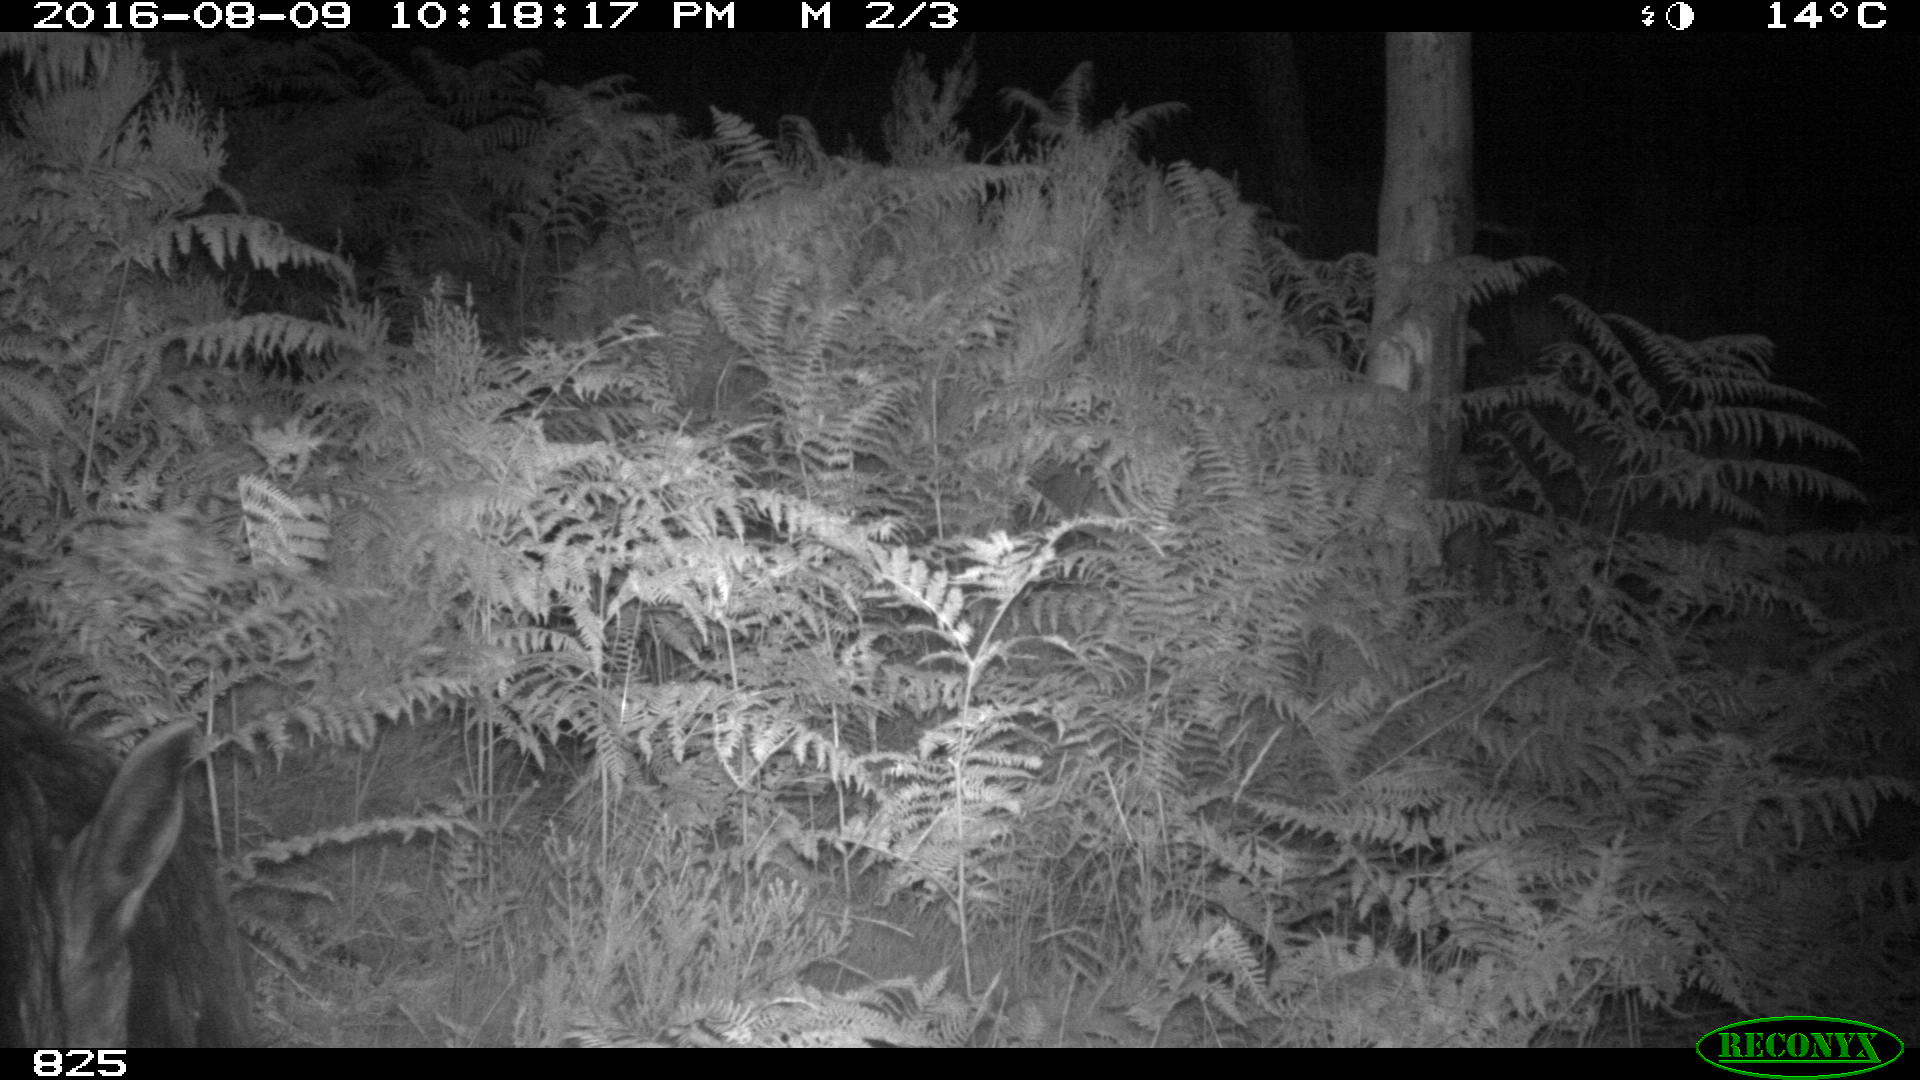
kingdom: Animalia
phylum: Chordata
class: Mammalia
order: Perissodactyla
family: Equidae
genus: Equus
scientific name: Equus caballus
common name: Horse
